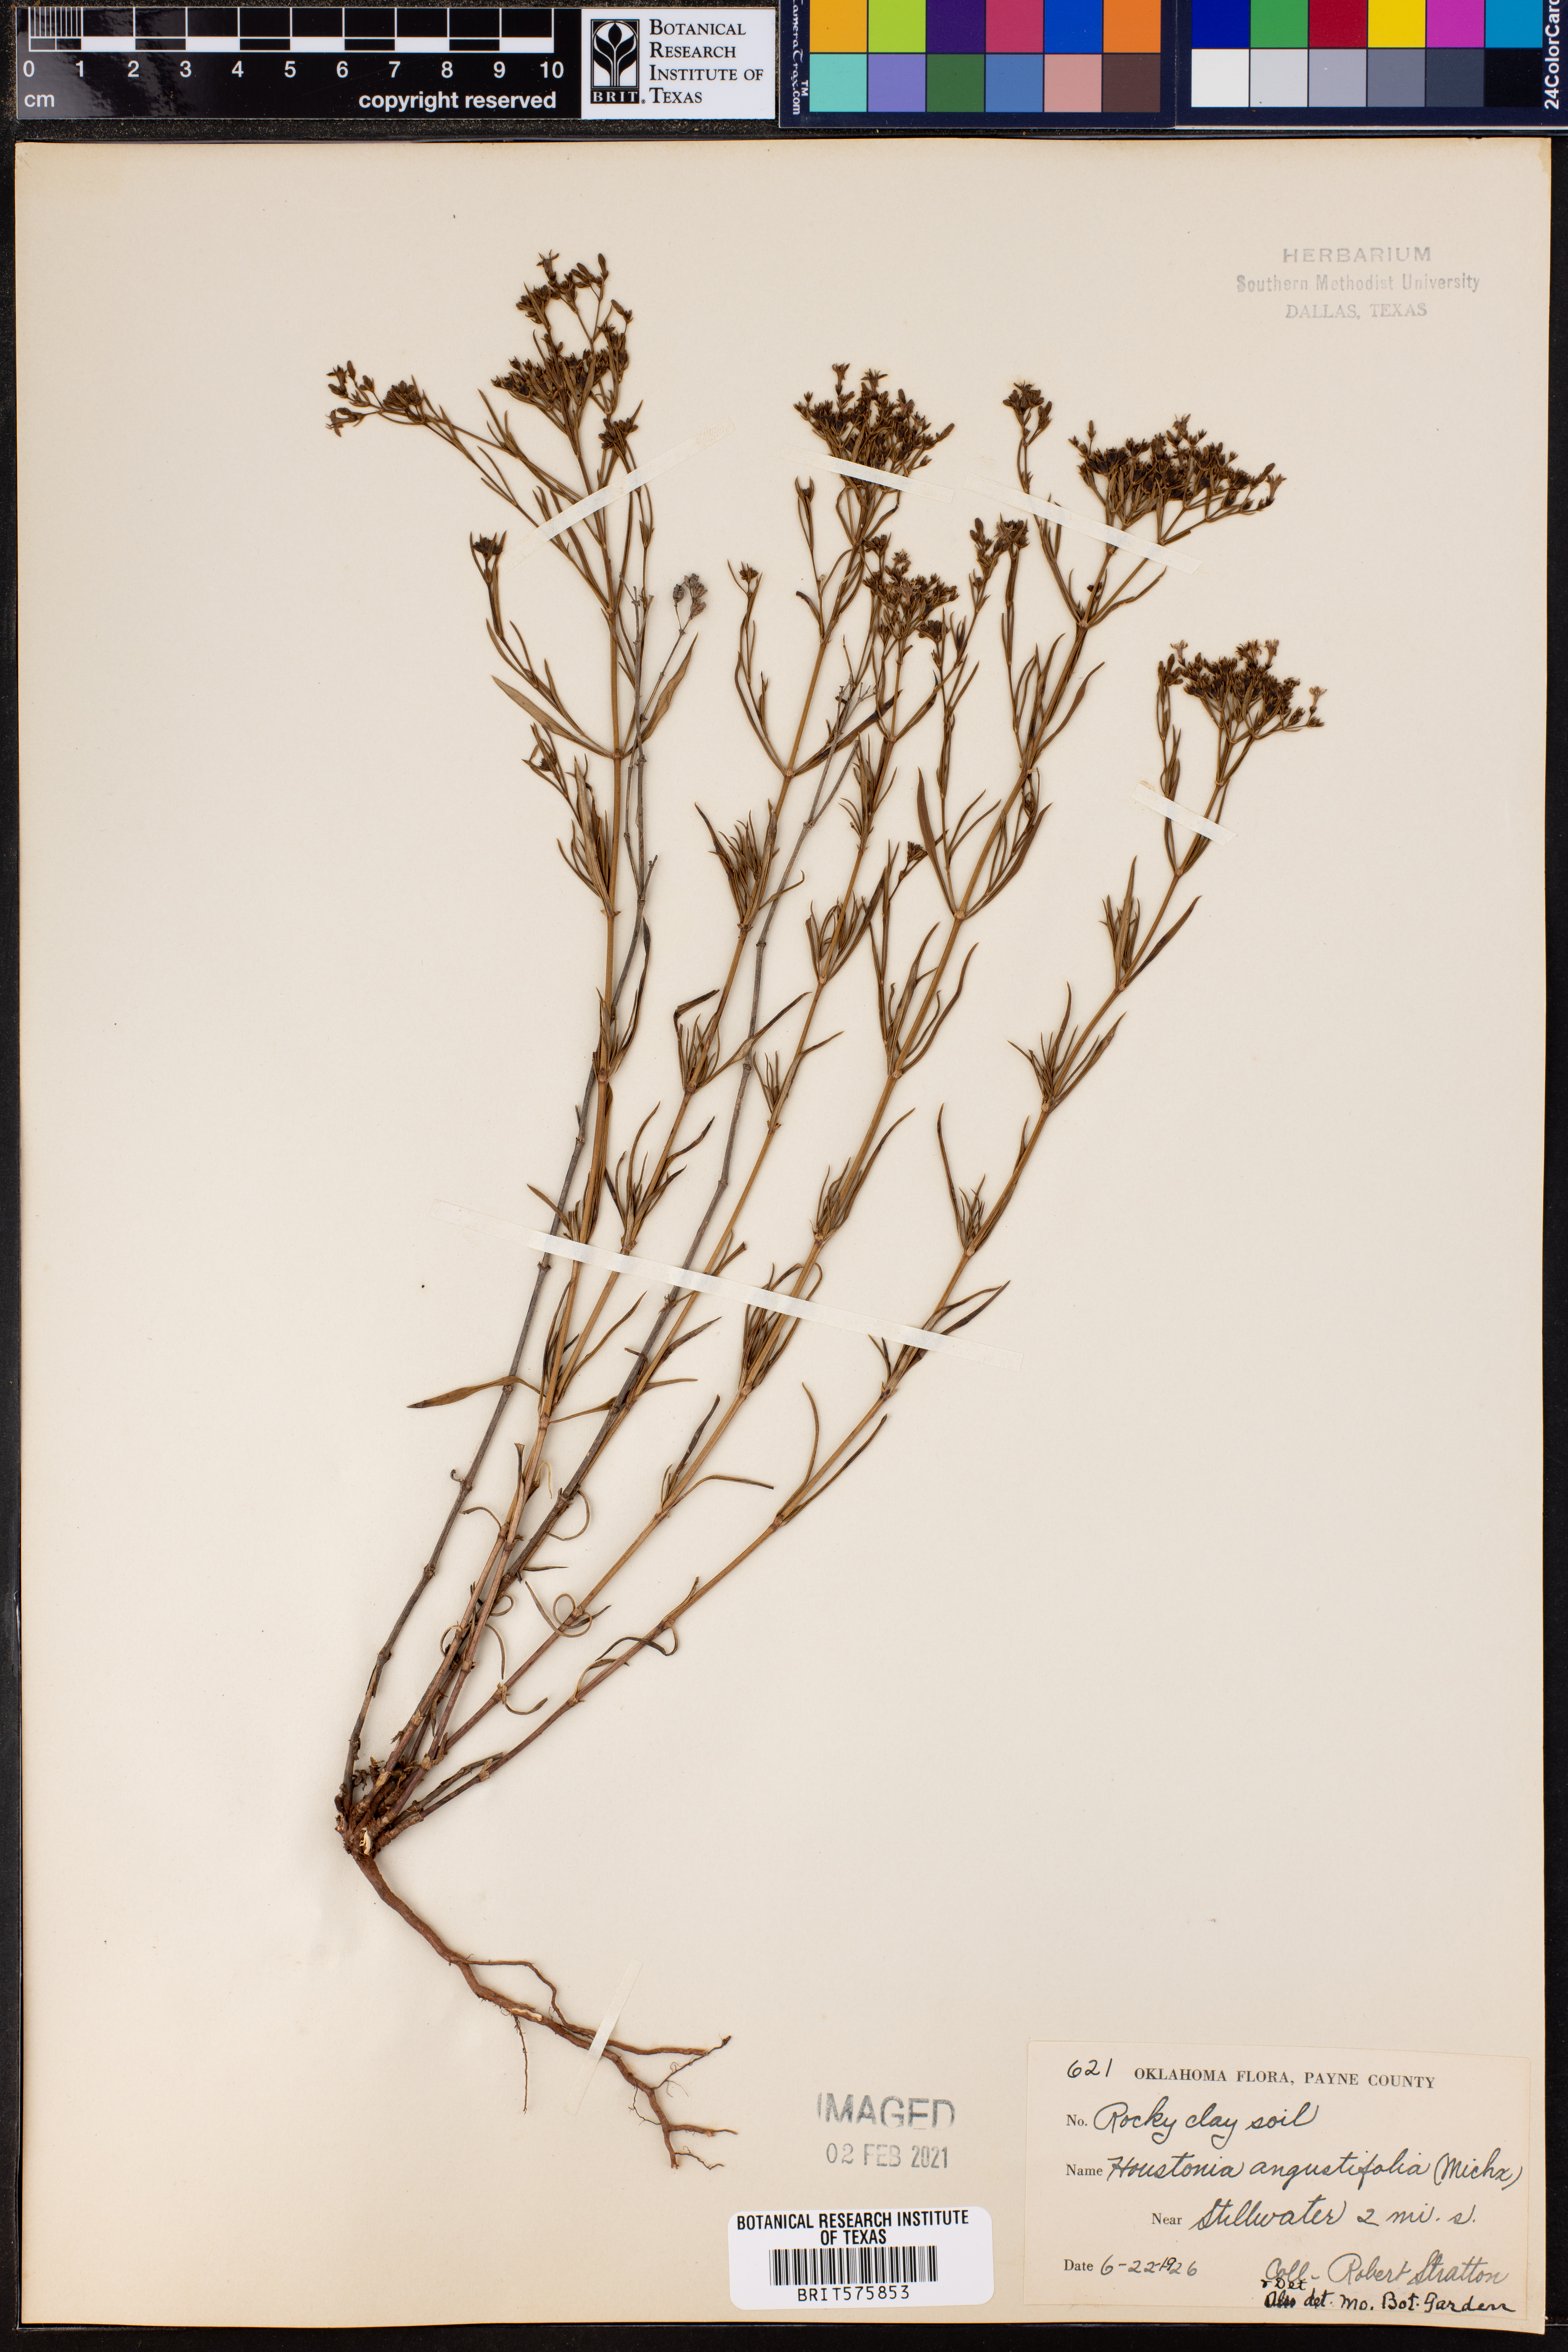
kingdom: Plantae
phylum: Tracheophyta
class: Magnoliopsida
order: Gentianales
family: Rubiaceae
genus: Stenaria
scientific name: Stenaria nigricans
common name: Diamondflowers
